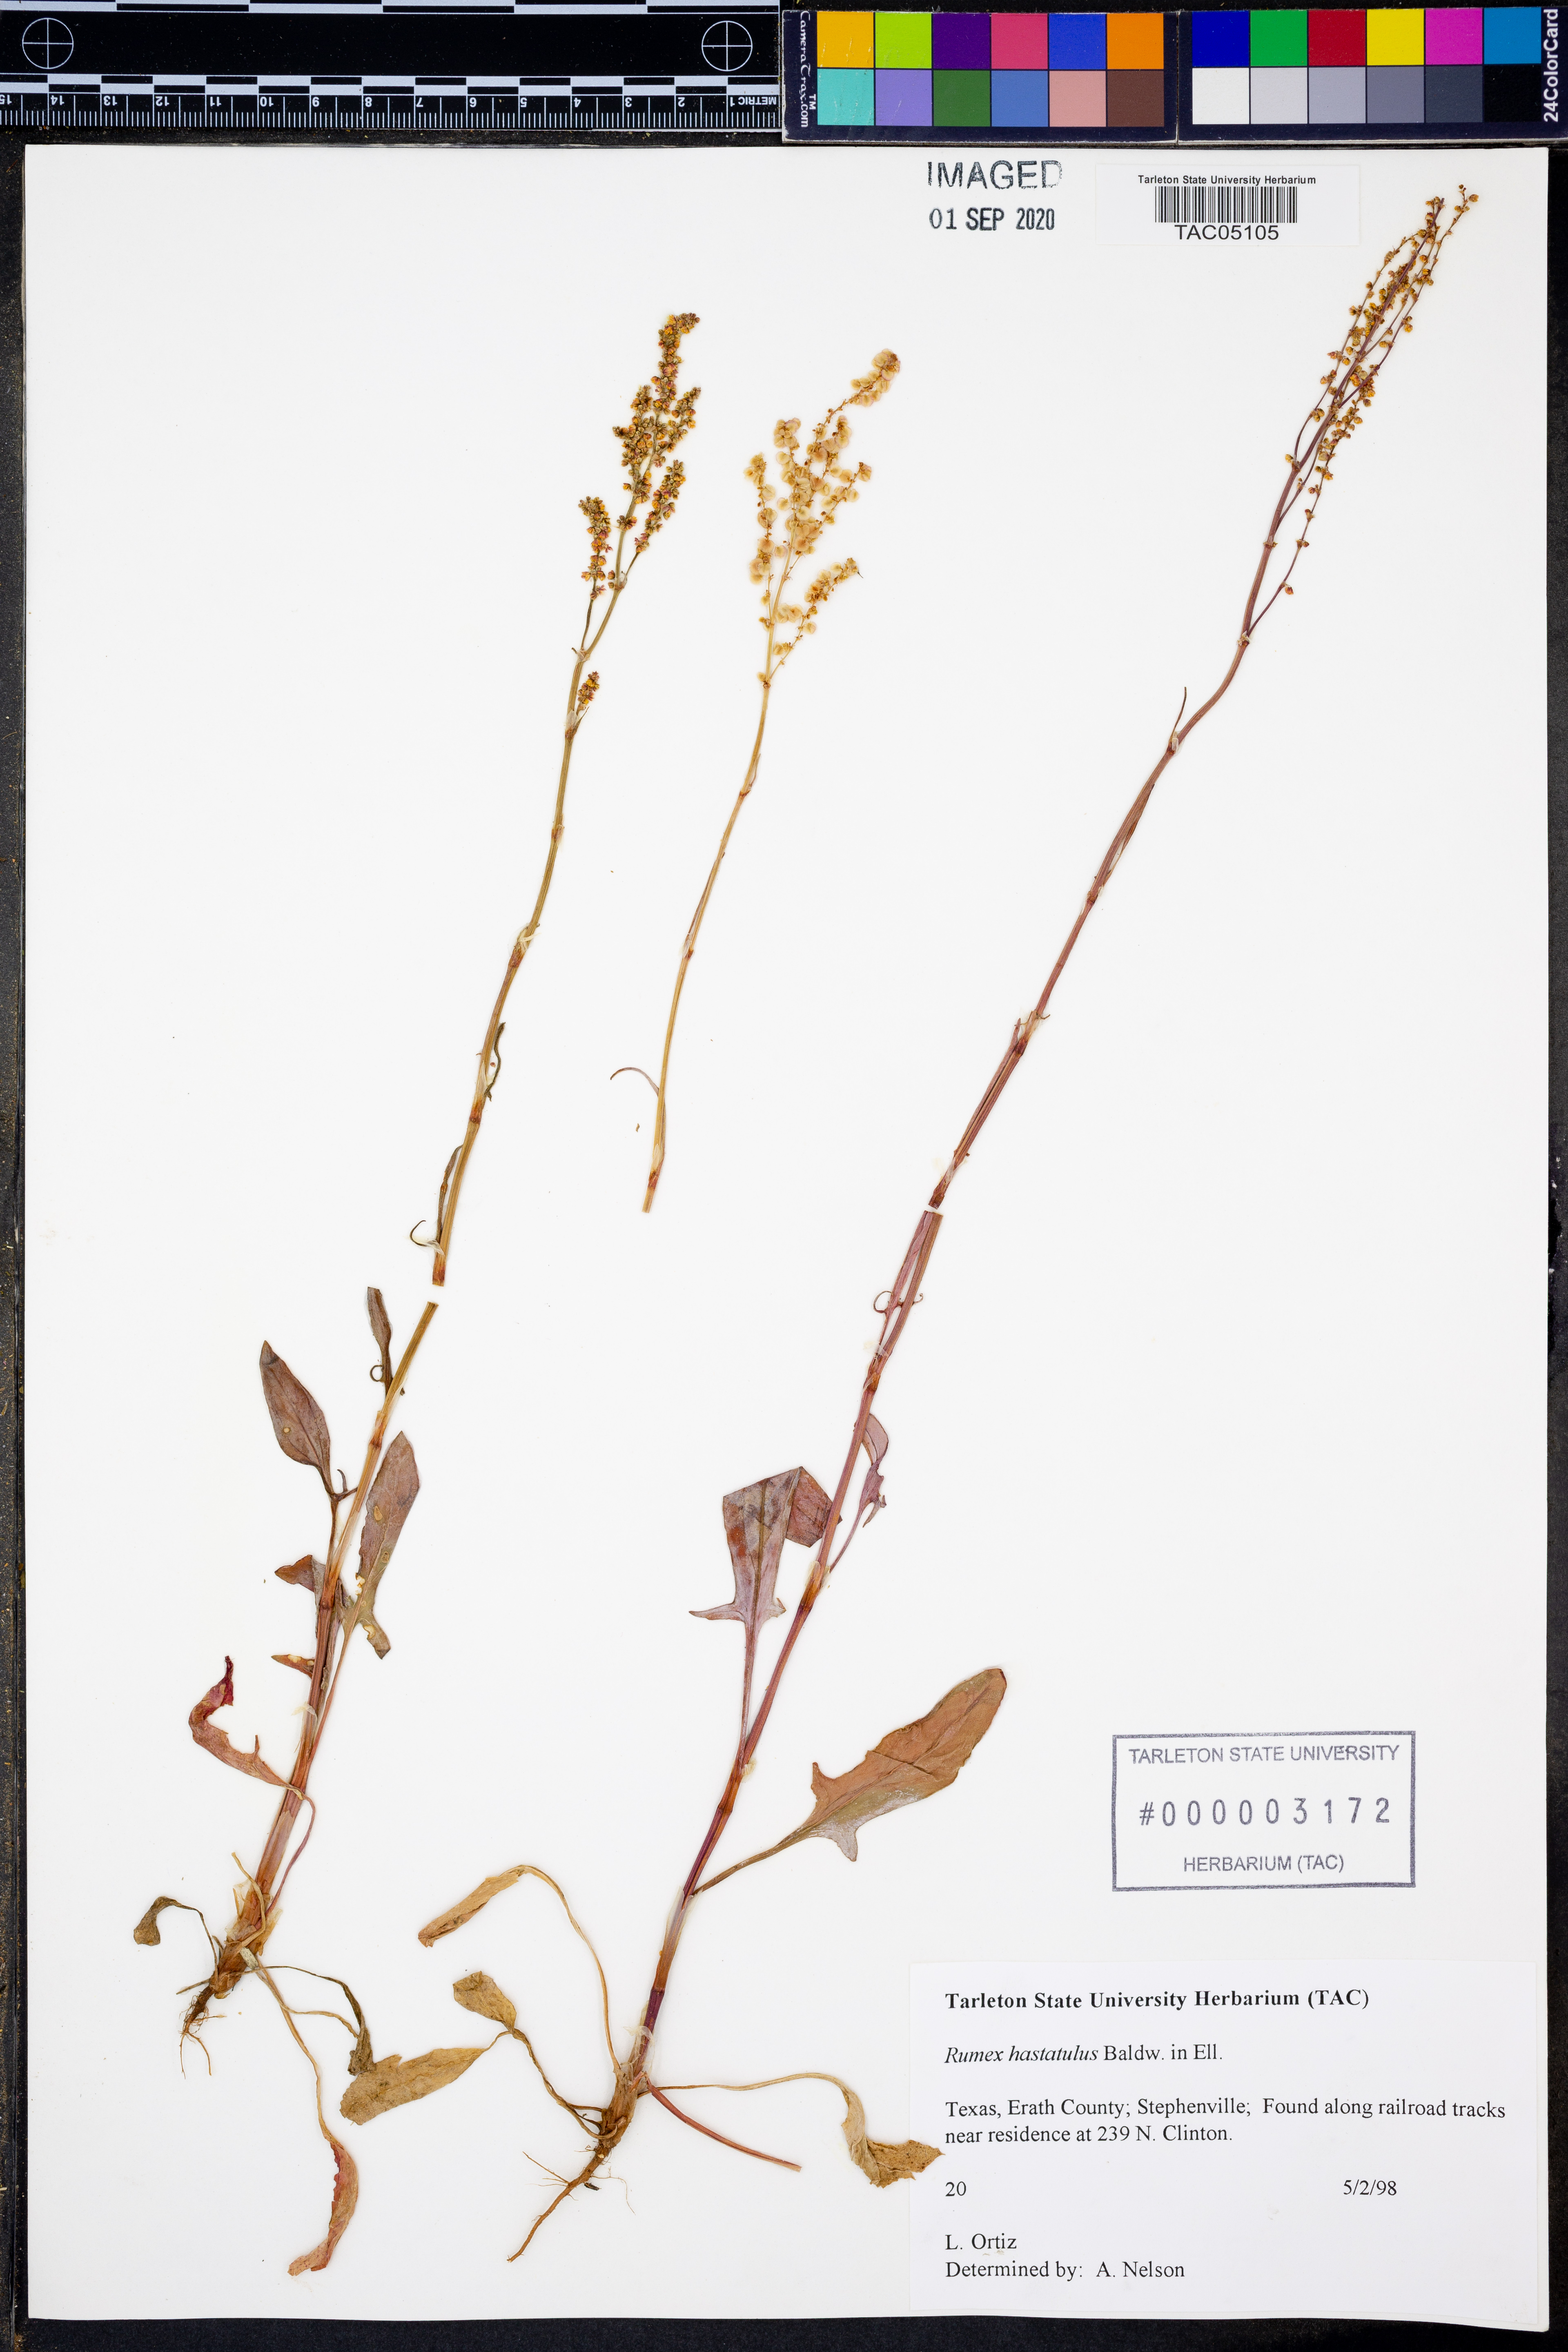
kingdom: Plantae
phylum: Tracheophyta
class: Magnoliopsida
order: Caryophyllales
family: Polygonaceae
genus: Rumex
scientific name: Rumex hastatulus
